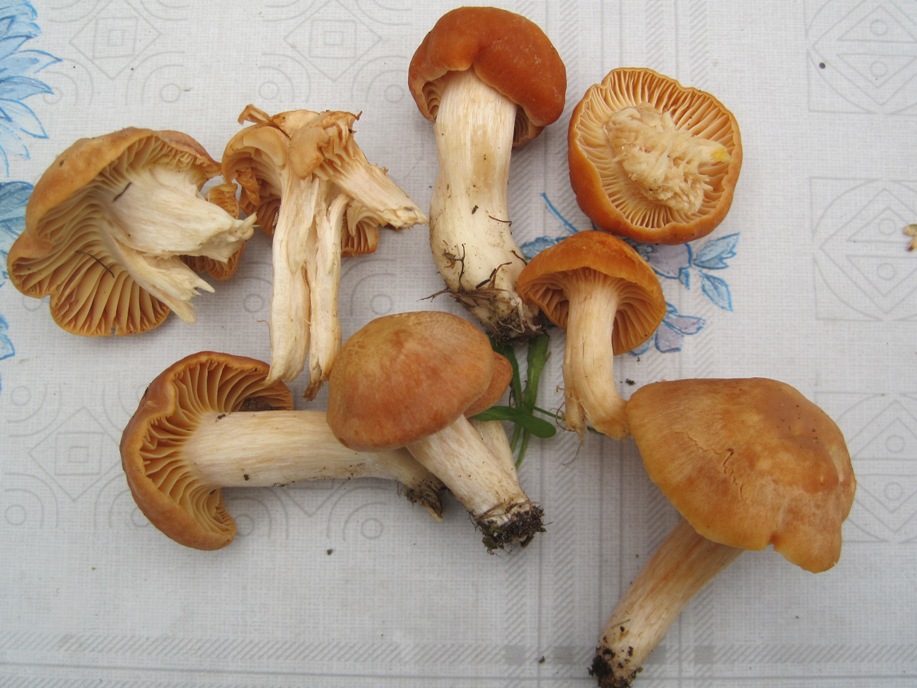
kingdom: Fungi
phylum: Basidiomycota
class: Agaricomycetes
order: Agaricales
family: Hygrophoraceae
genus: Cuphophyllus
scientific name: Cuphophyllus pratensis
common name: eng-vokshat
